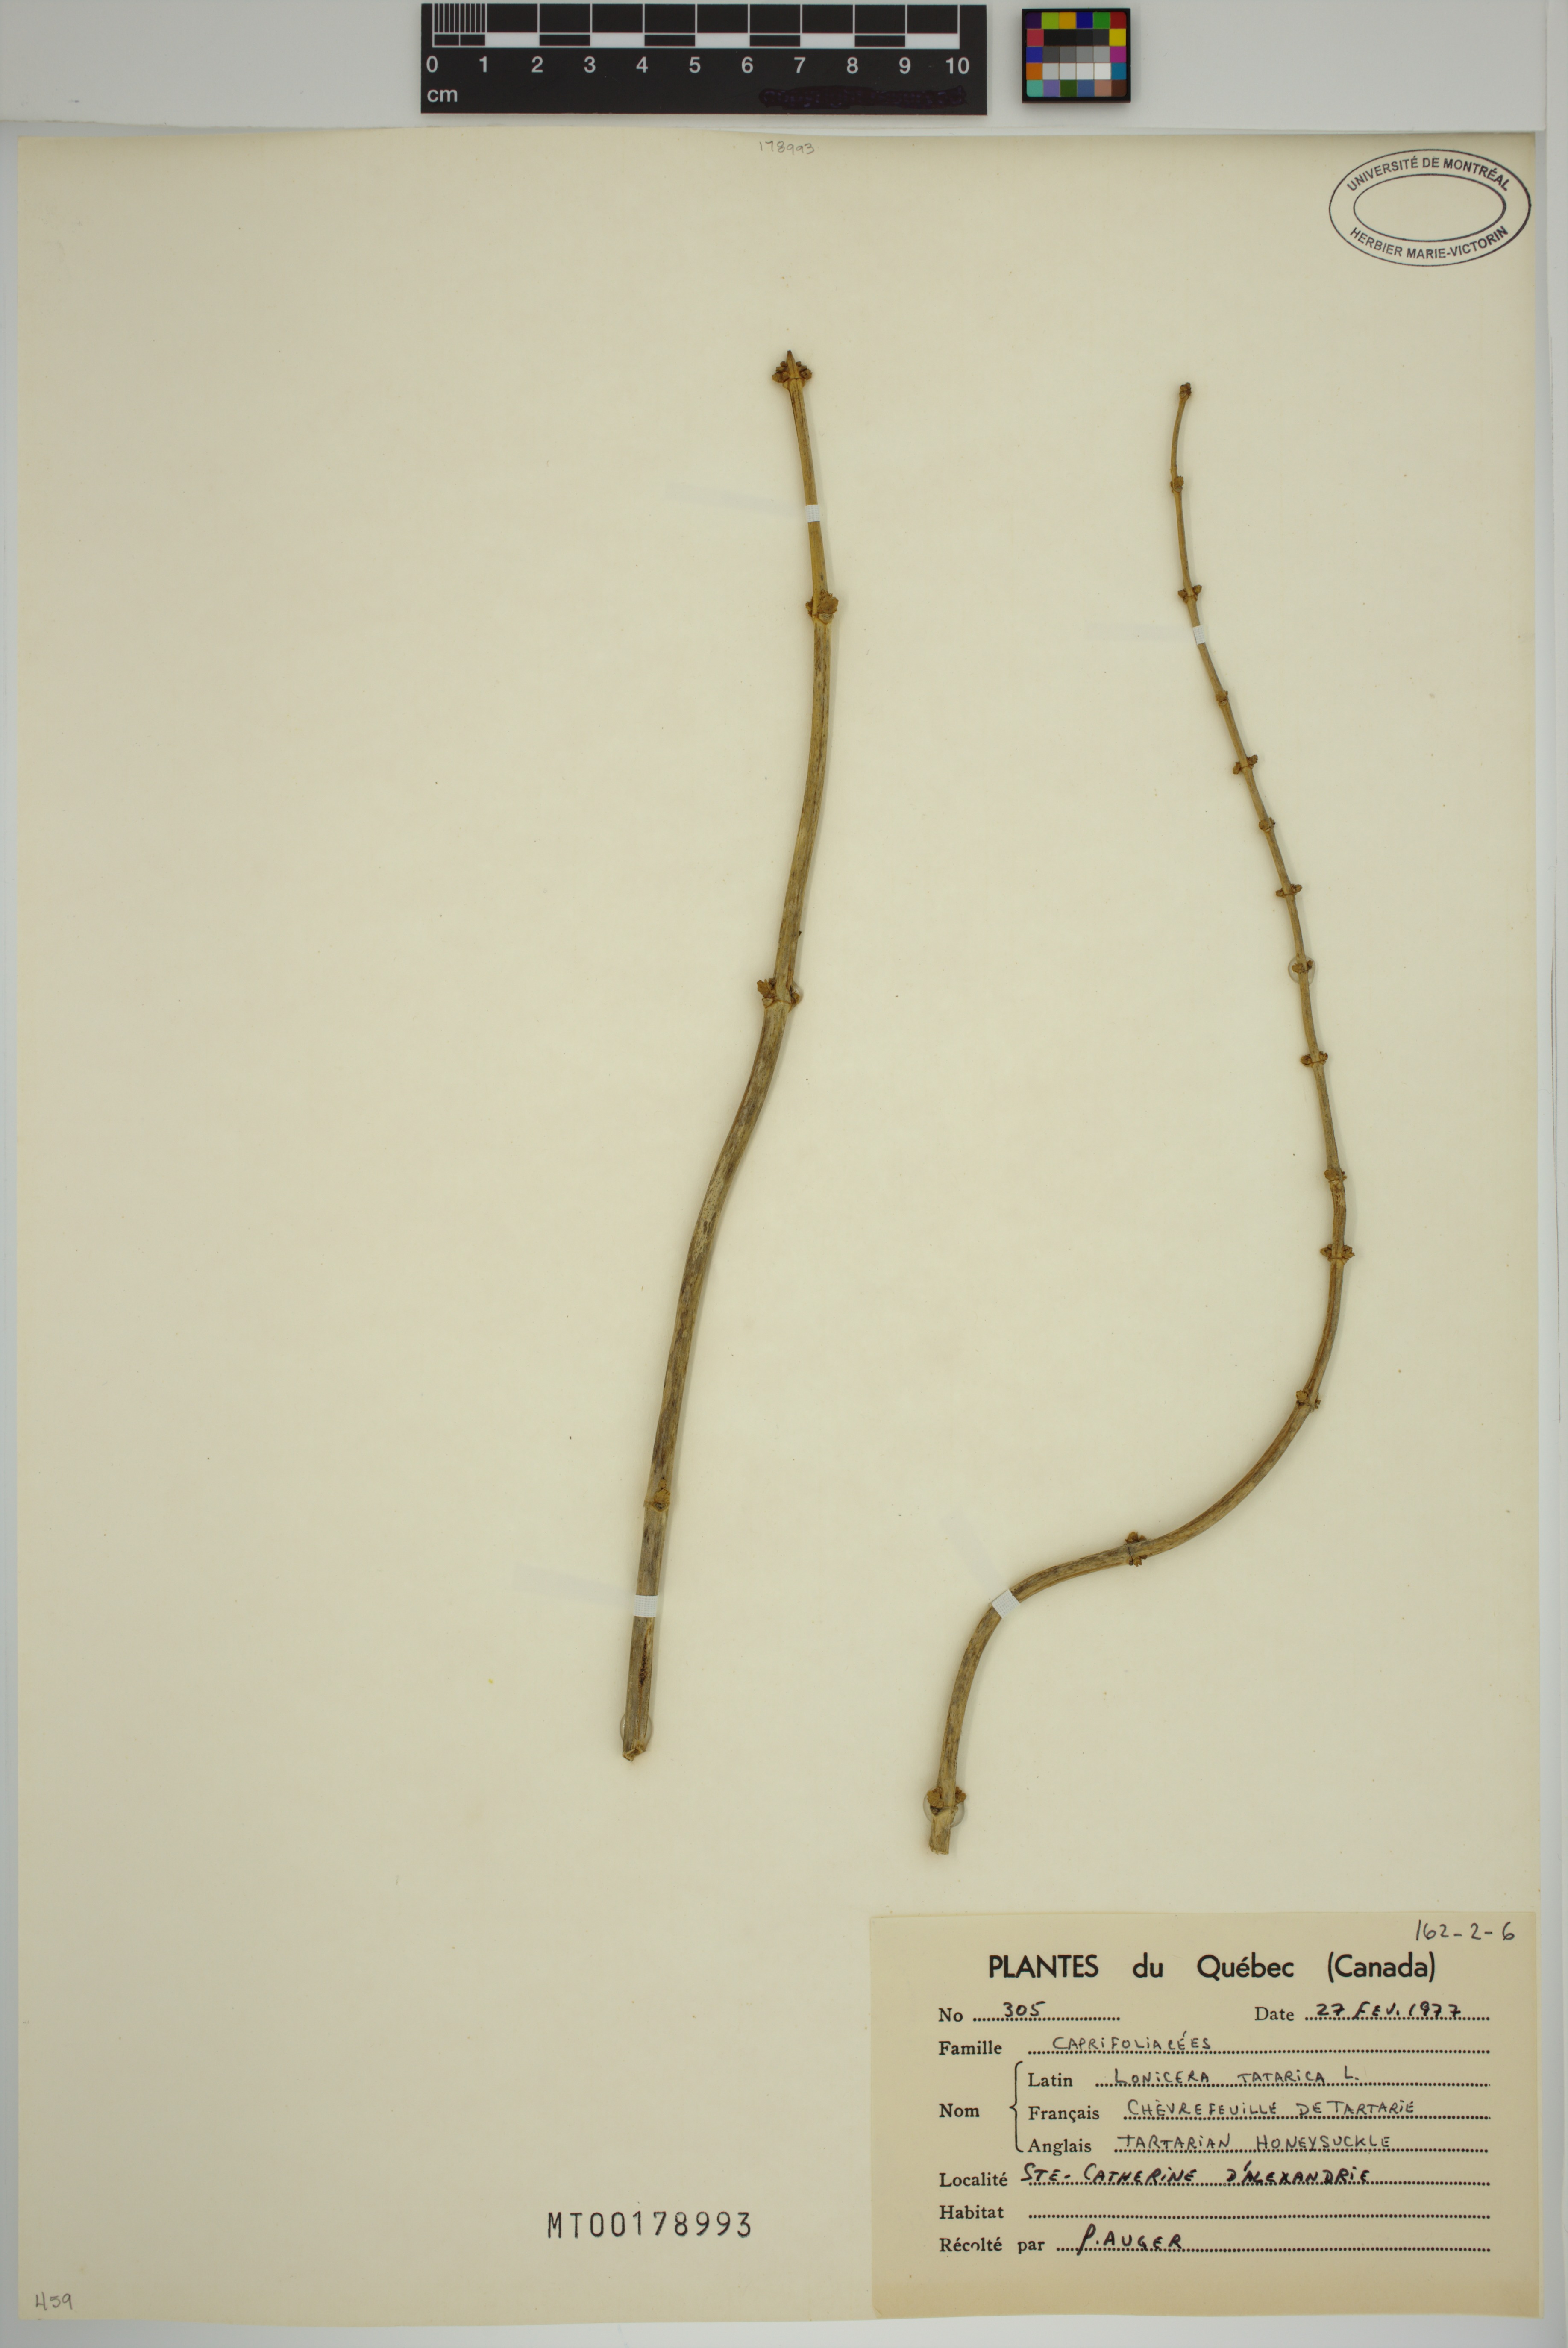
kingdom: Plantae
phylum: Tracheophyta
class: Magnoliopsida
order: Dipsacales
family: Caprifoliaceae
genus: Lonicera
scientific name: Lonicera tatarica
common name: Tatarian honeysuckle
